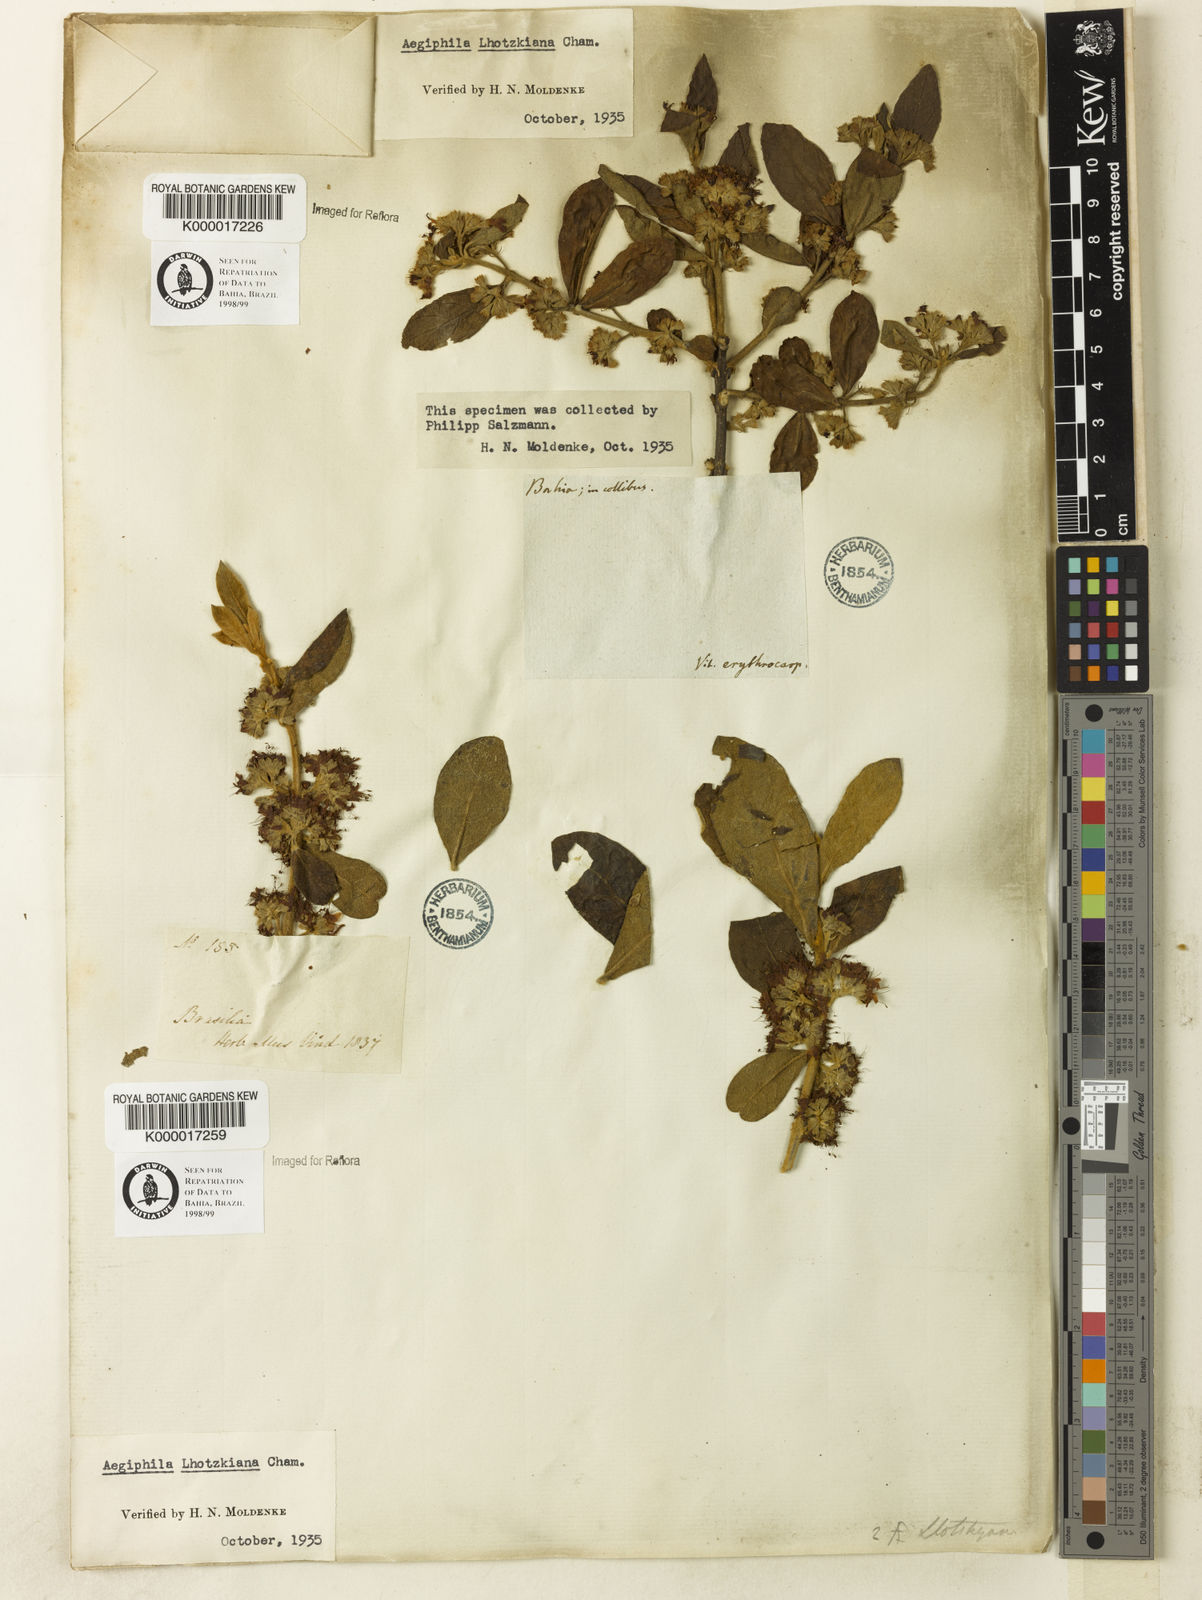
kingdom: Plantae
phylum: Tracheophyta
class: Magnoliopsida
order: Lamiales
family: Lamiaceae
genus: Aegiphila
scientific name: Aegiphila verticillata
